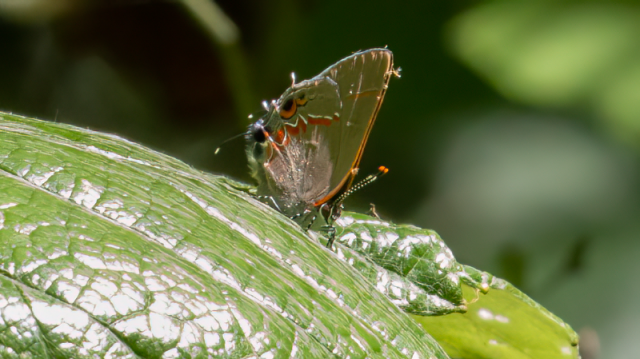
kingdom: Animalia
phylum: Arthropoda
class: Insecta
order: Lepidoptera
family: Lycaenidae
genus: Calycopis
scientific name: Calycopis isobeon
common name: Dusky-blue Groundstreak
